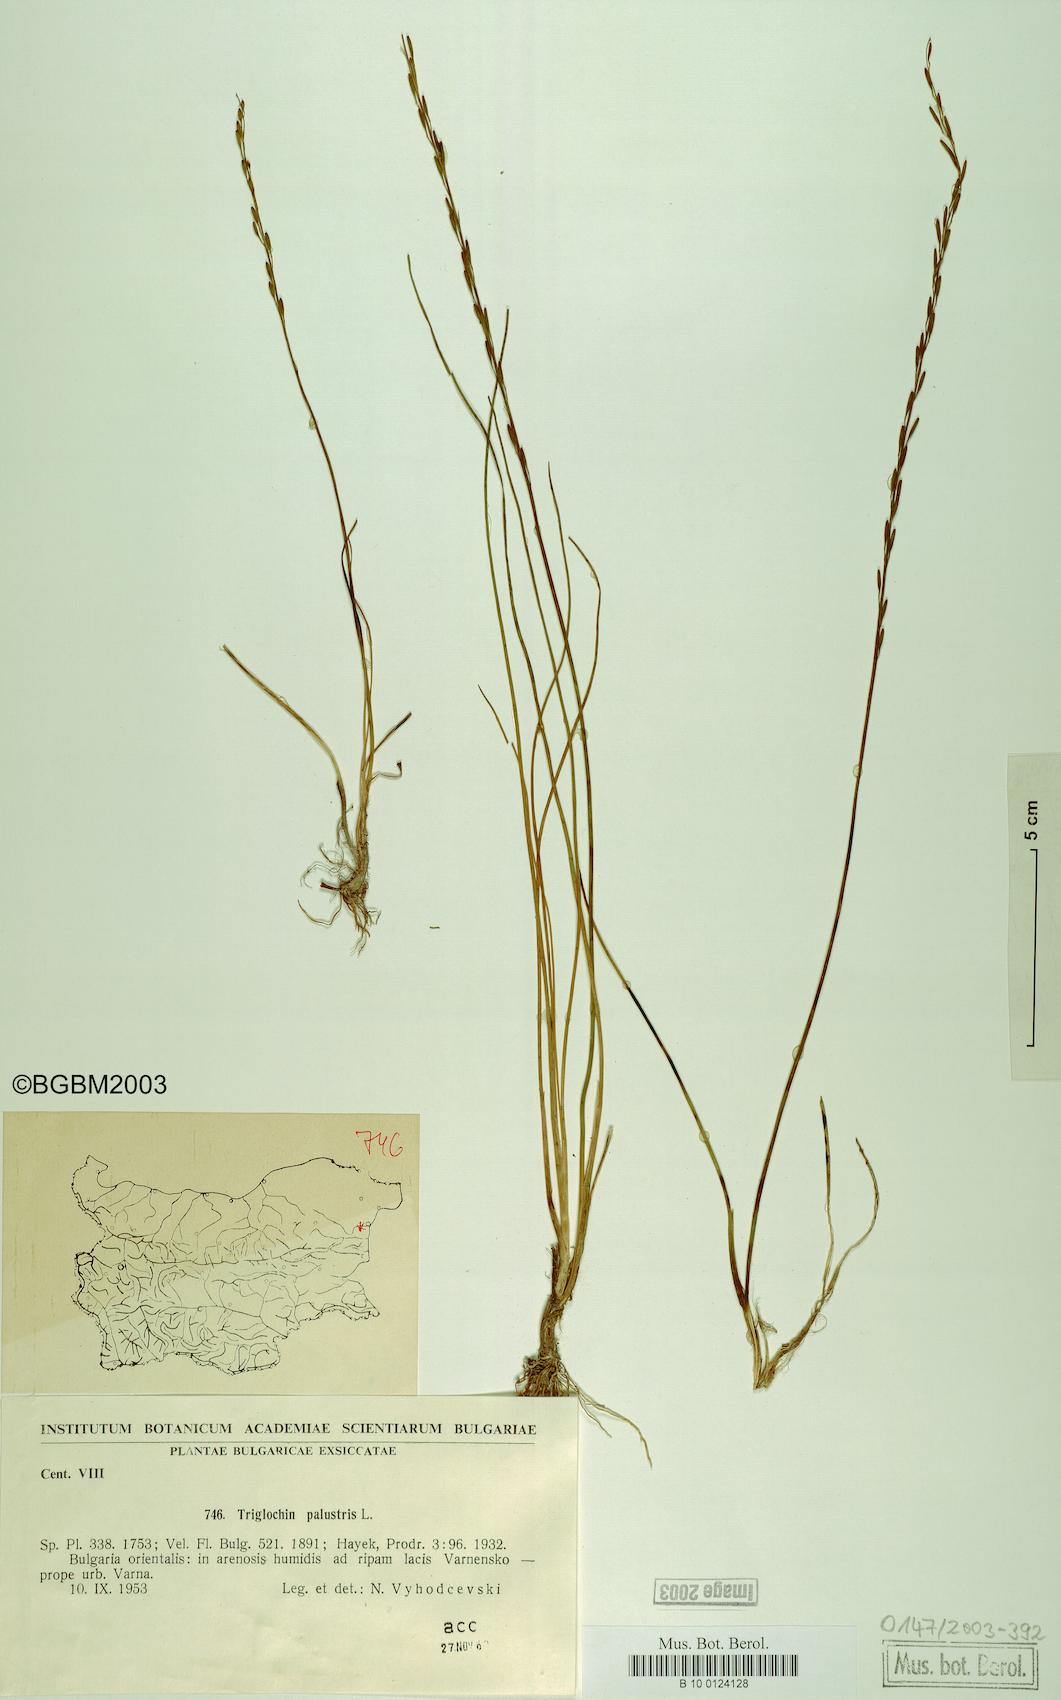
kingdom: Plantae
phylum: Tracheophyta
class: Liliopsida
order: Alismatales
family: Juncaginaceae
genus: Triglochin
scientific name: Triglochin palustris
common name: Marsh arrowgrass
